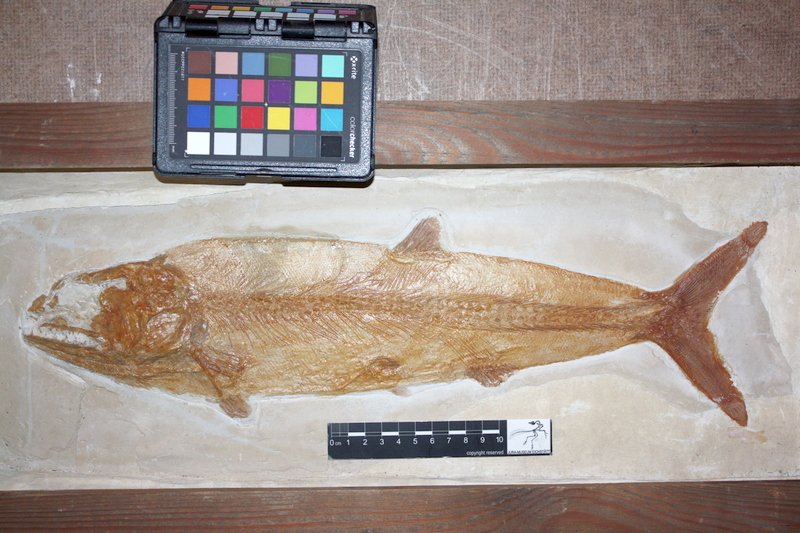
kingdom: Animalia
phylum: Chordata
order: Amiiformes
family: Caturidae
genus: Caturus
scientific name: Caturus furcatus
